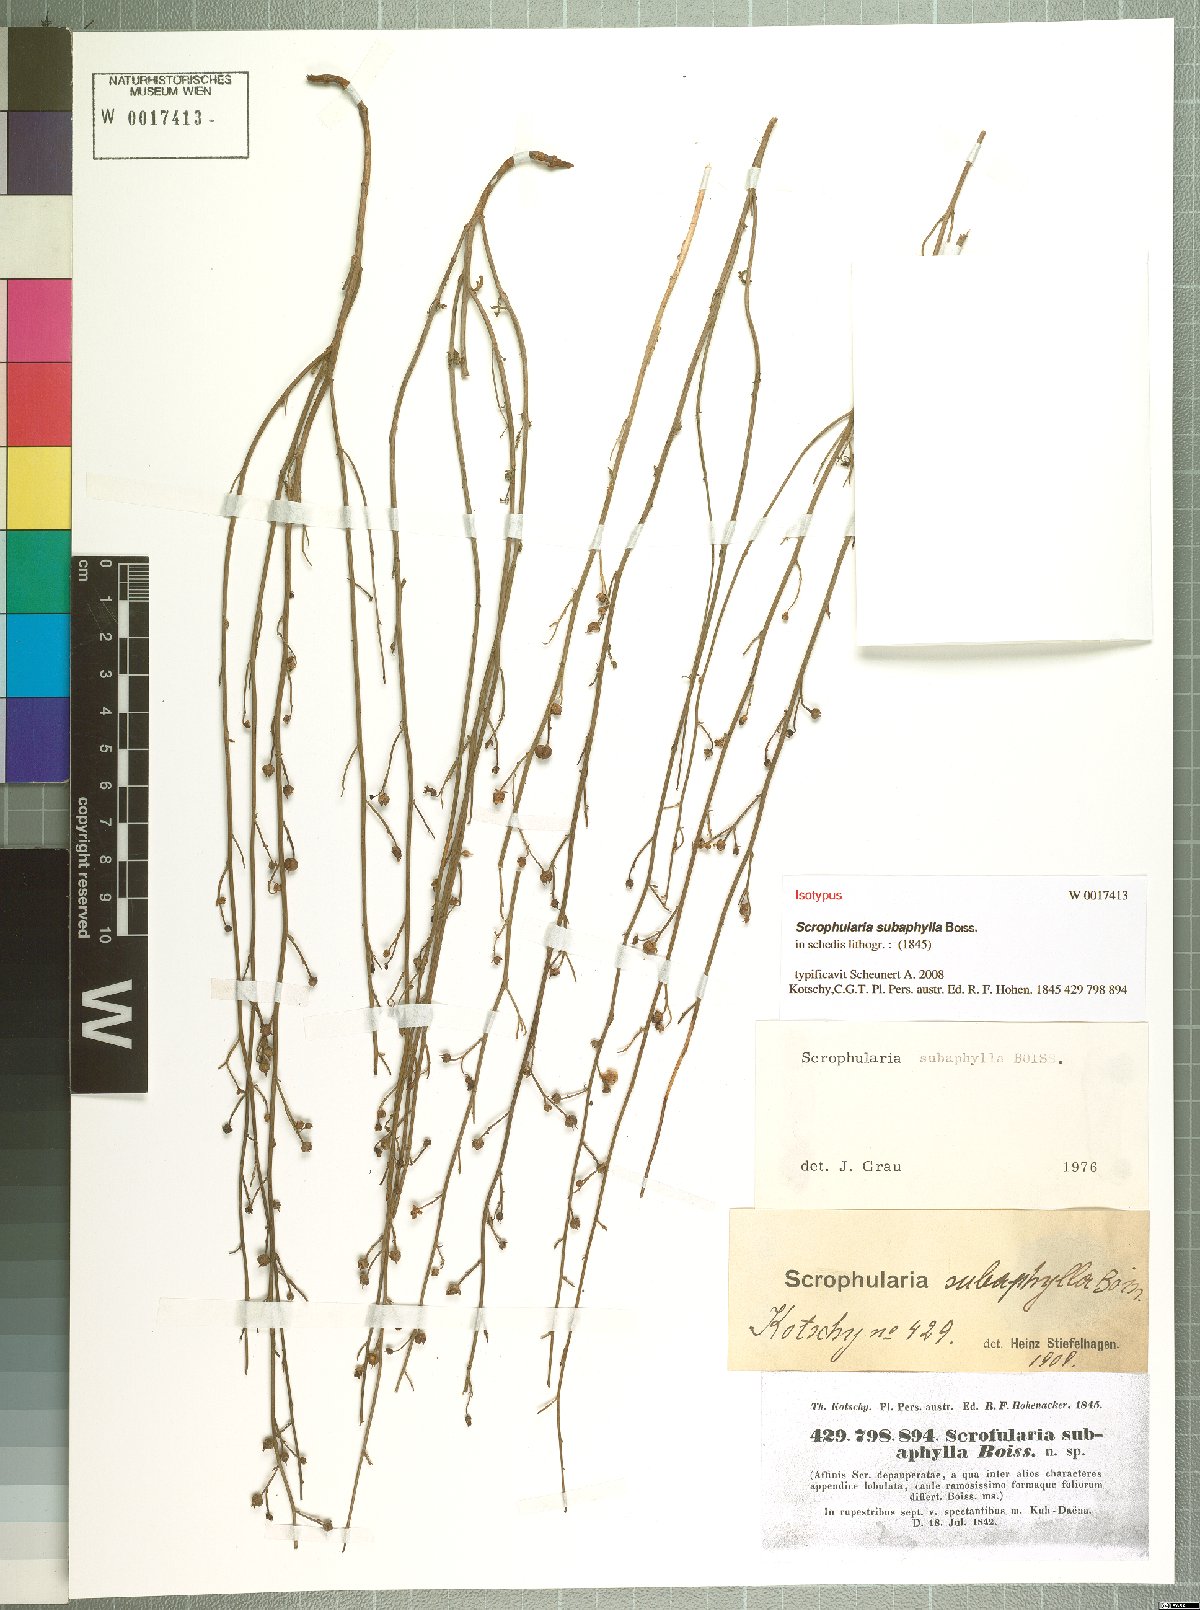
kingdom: Plantae
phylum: Tracheophyta
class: Magnoliopsida
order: Lamiales
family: Scrophulariaceae
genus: Scrophularia
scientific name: Scrophularia subaphylla
